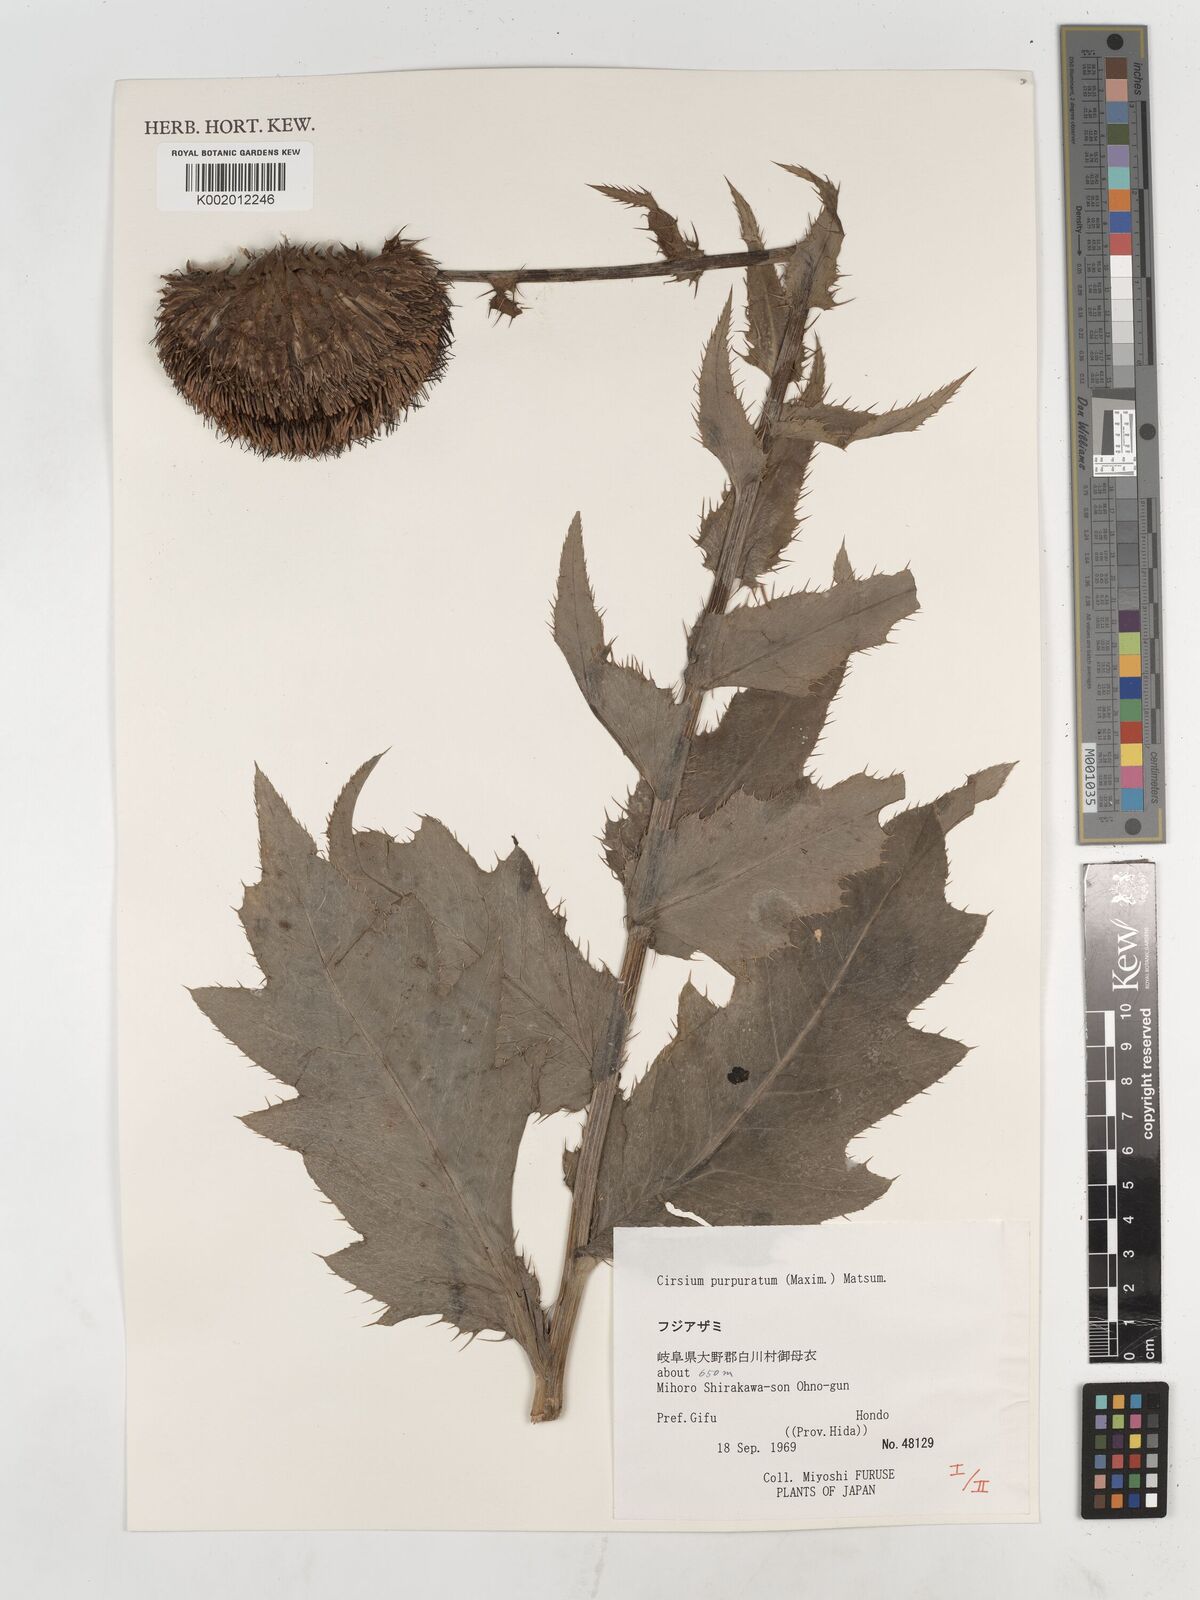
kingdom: Plantae
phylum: Tracheophyta
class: Magnoliopsida
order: Asterales
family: Asteraceae
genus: Cirsium
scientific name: Cirsium purpuratum
